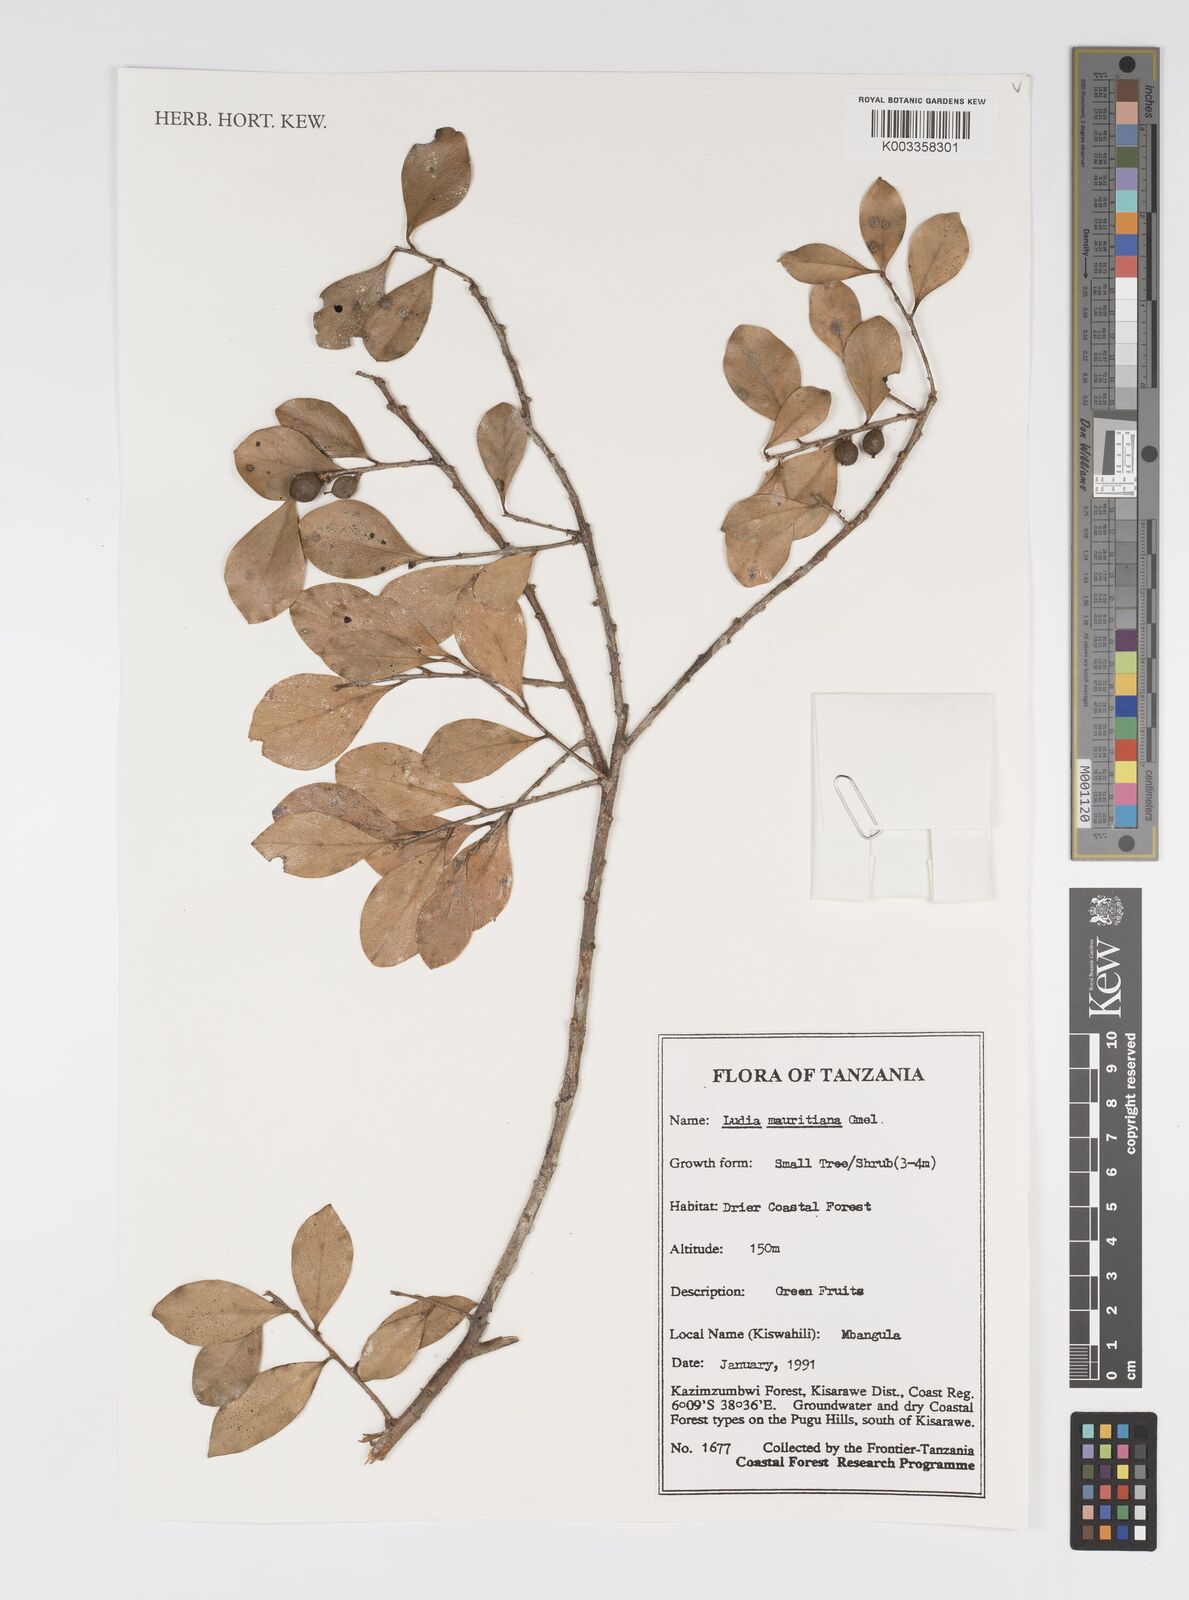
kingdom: Plantae
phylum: Tracheophyta
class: Magnoliopsida
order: Malpighiales
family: Salicaceae
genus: Ludia
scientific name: Ludia mauritiana
